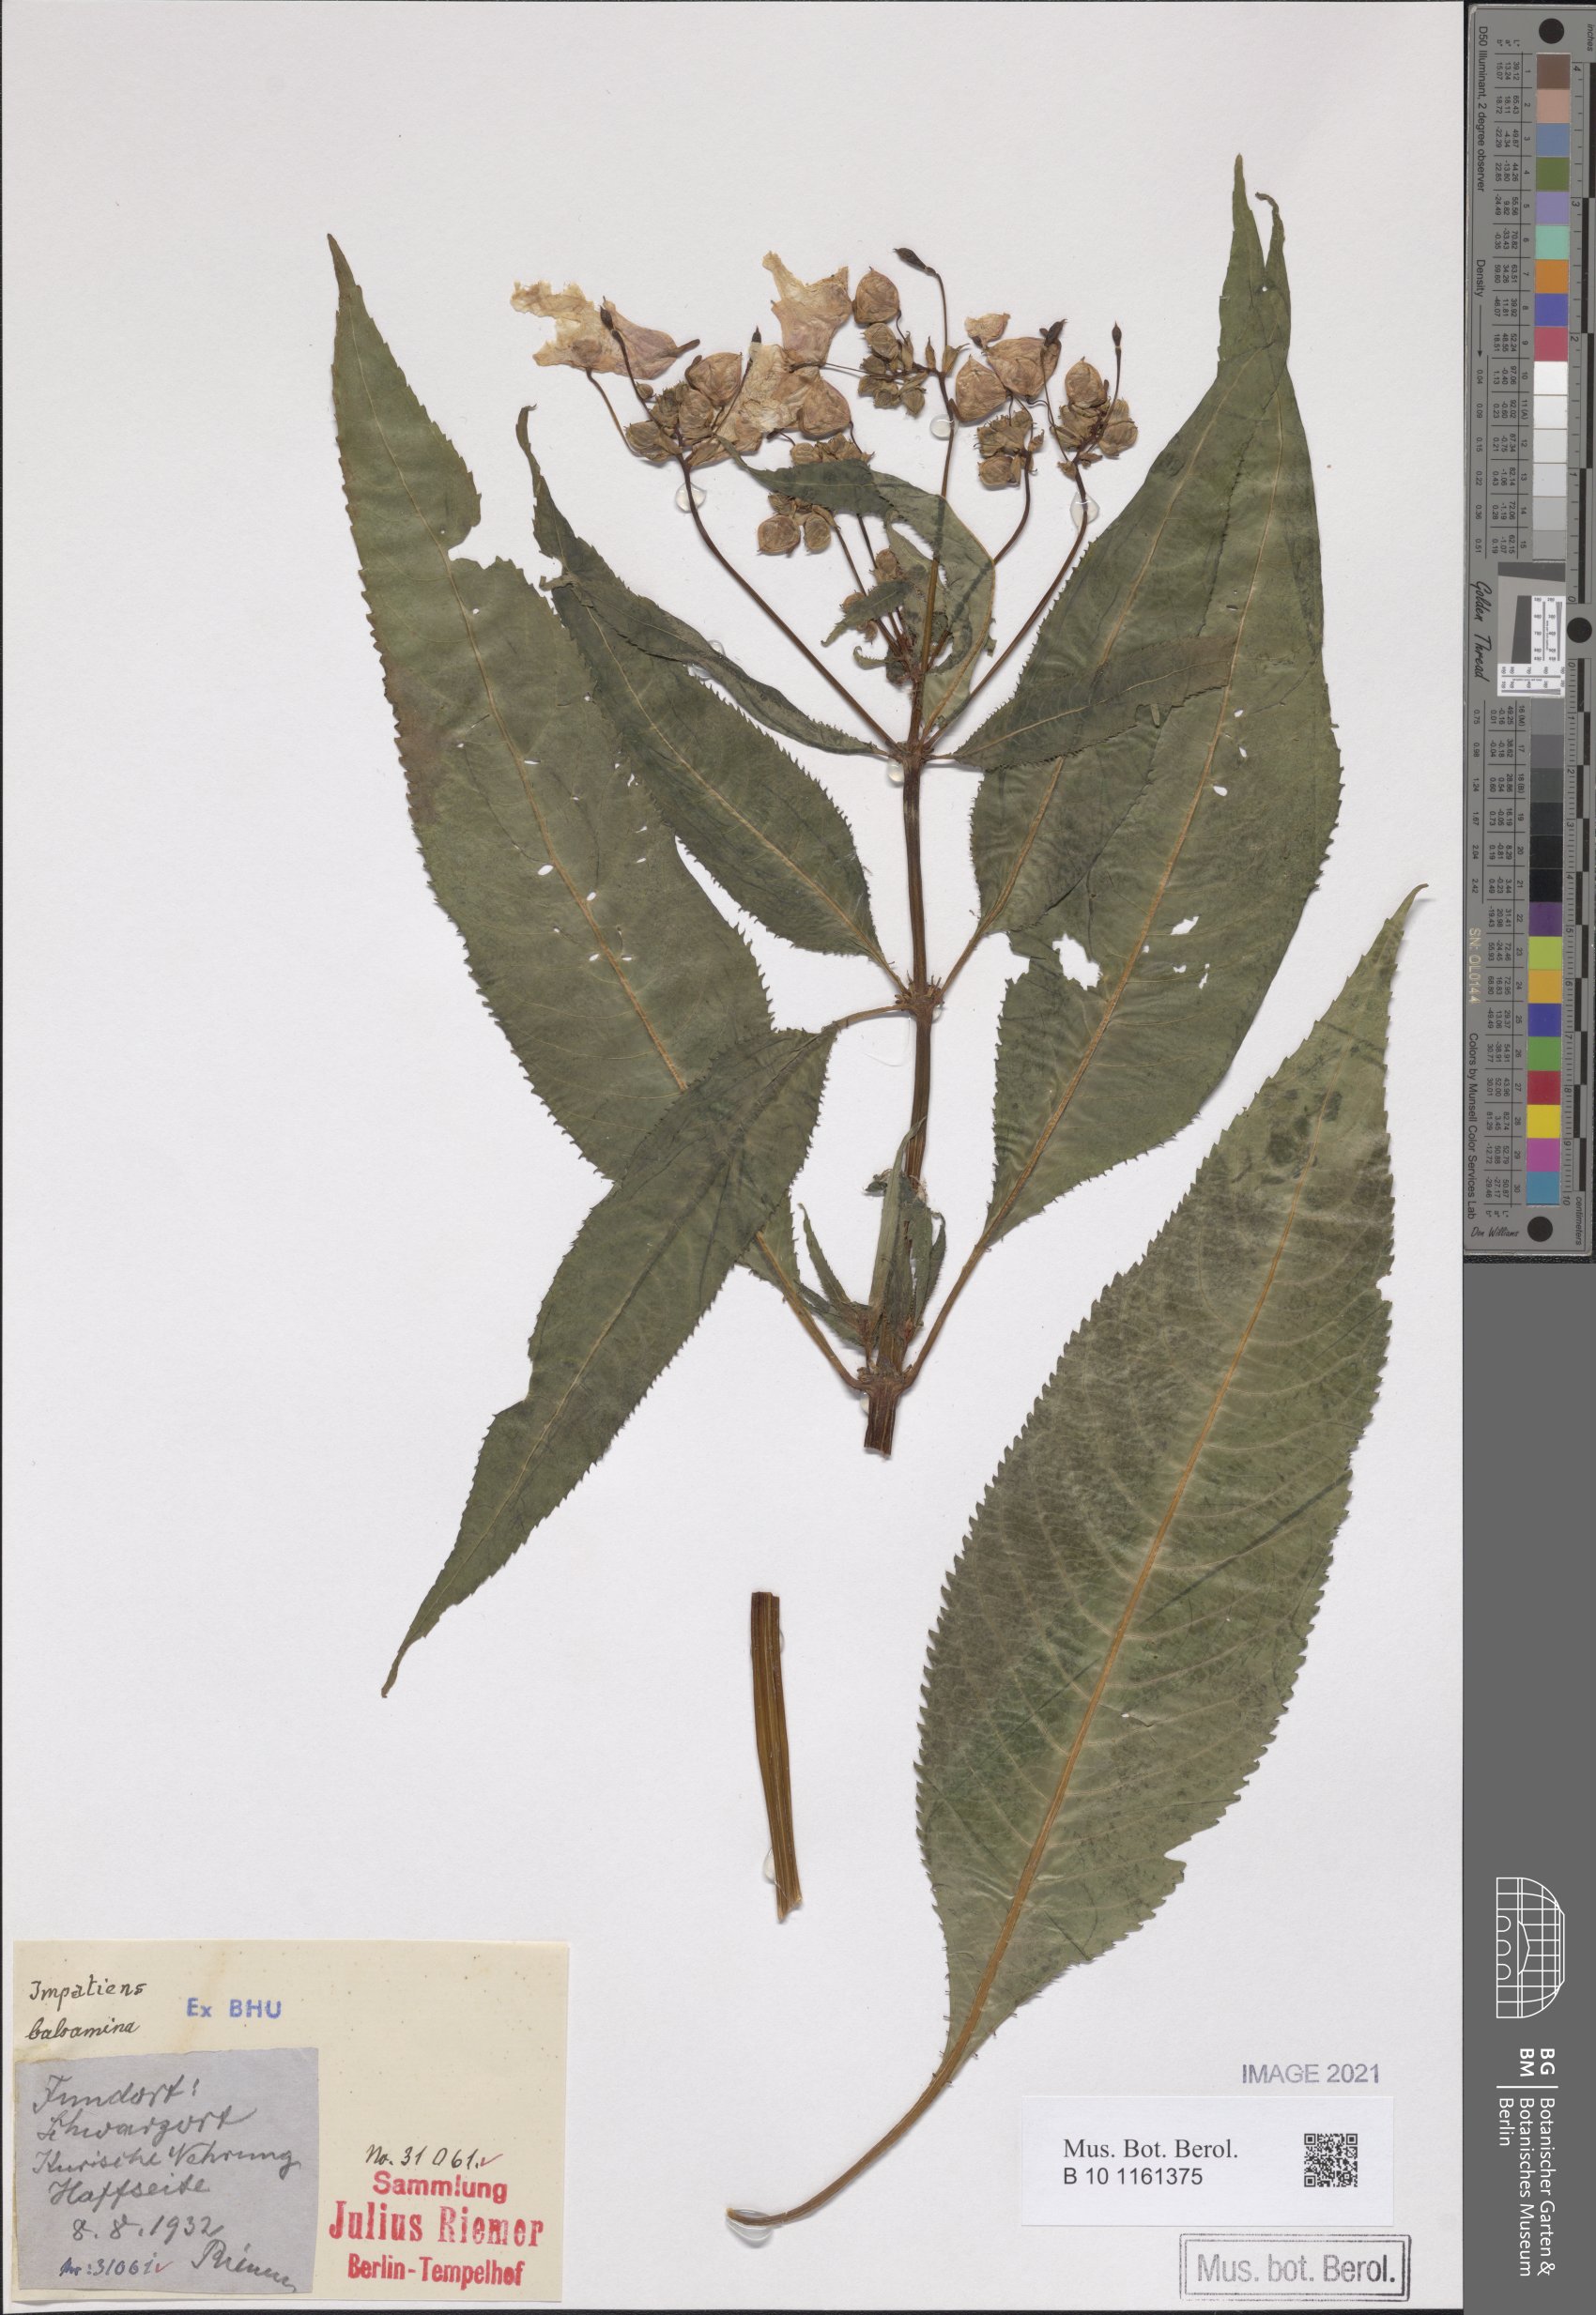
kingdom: Plantae
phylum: Tracheophyta
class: Magnoliopsida
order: Ericales
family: Balsaminaceae
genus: Impatiens
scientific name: Impatiens glandulifera
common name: Himalayan balsam
